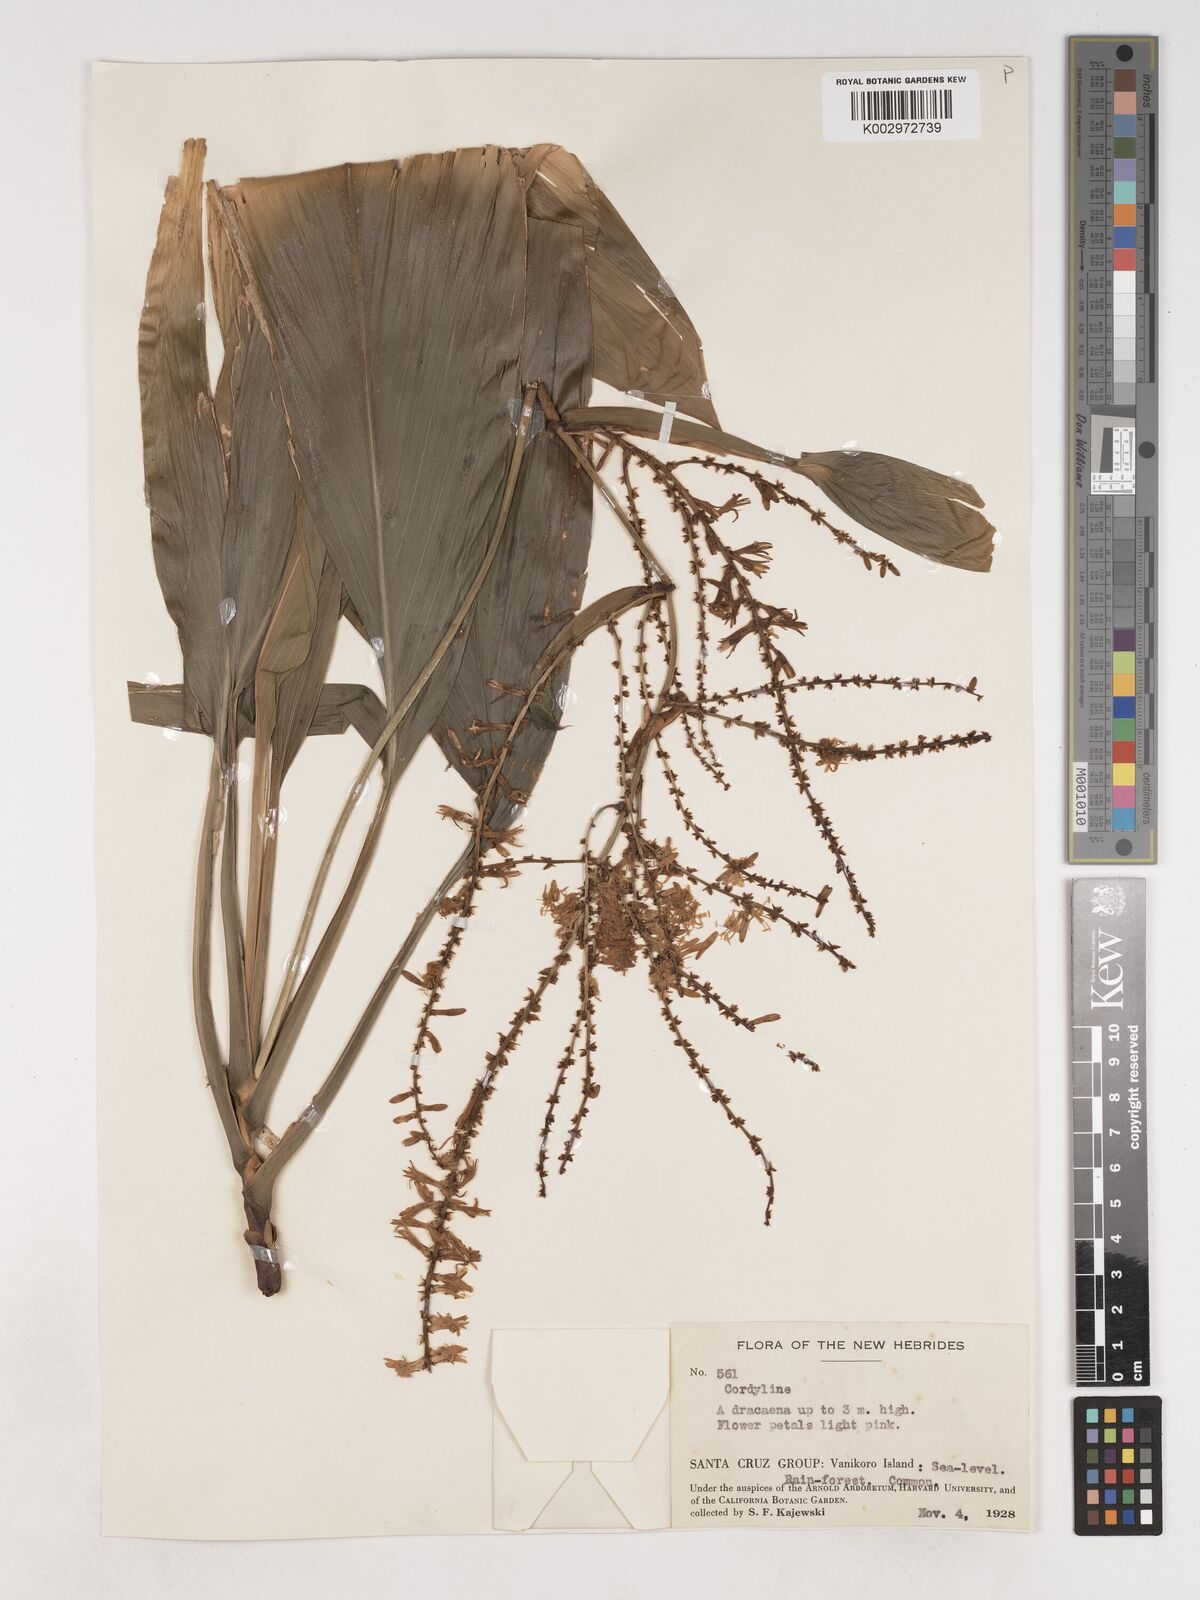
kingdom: Plantae
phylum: Tracheophyta
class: Liliopsida
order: Asparagales
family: Asparagaceae
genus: Cordyline
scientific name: Cordyline fruticosa
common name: Good-luck-plant
